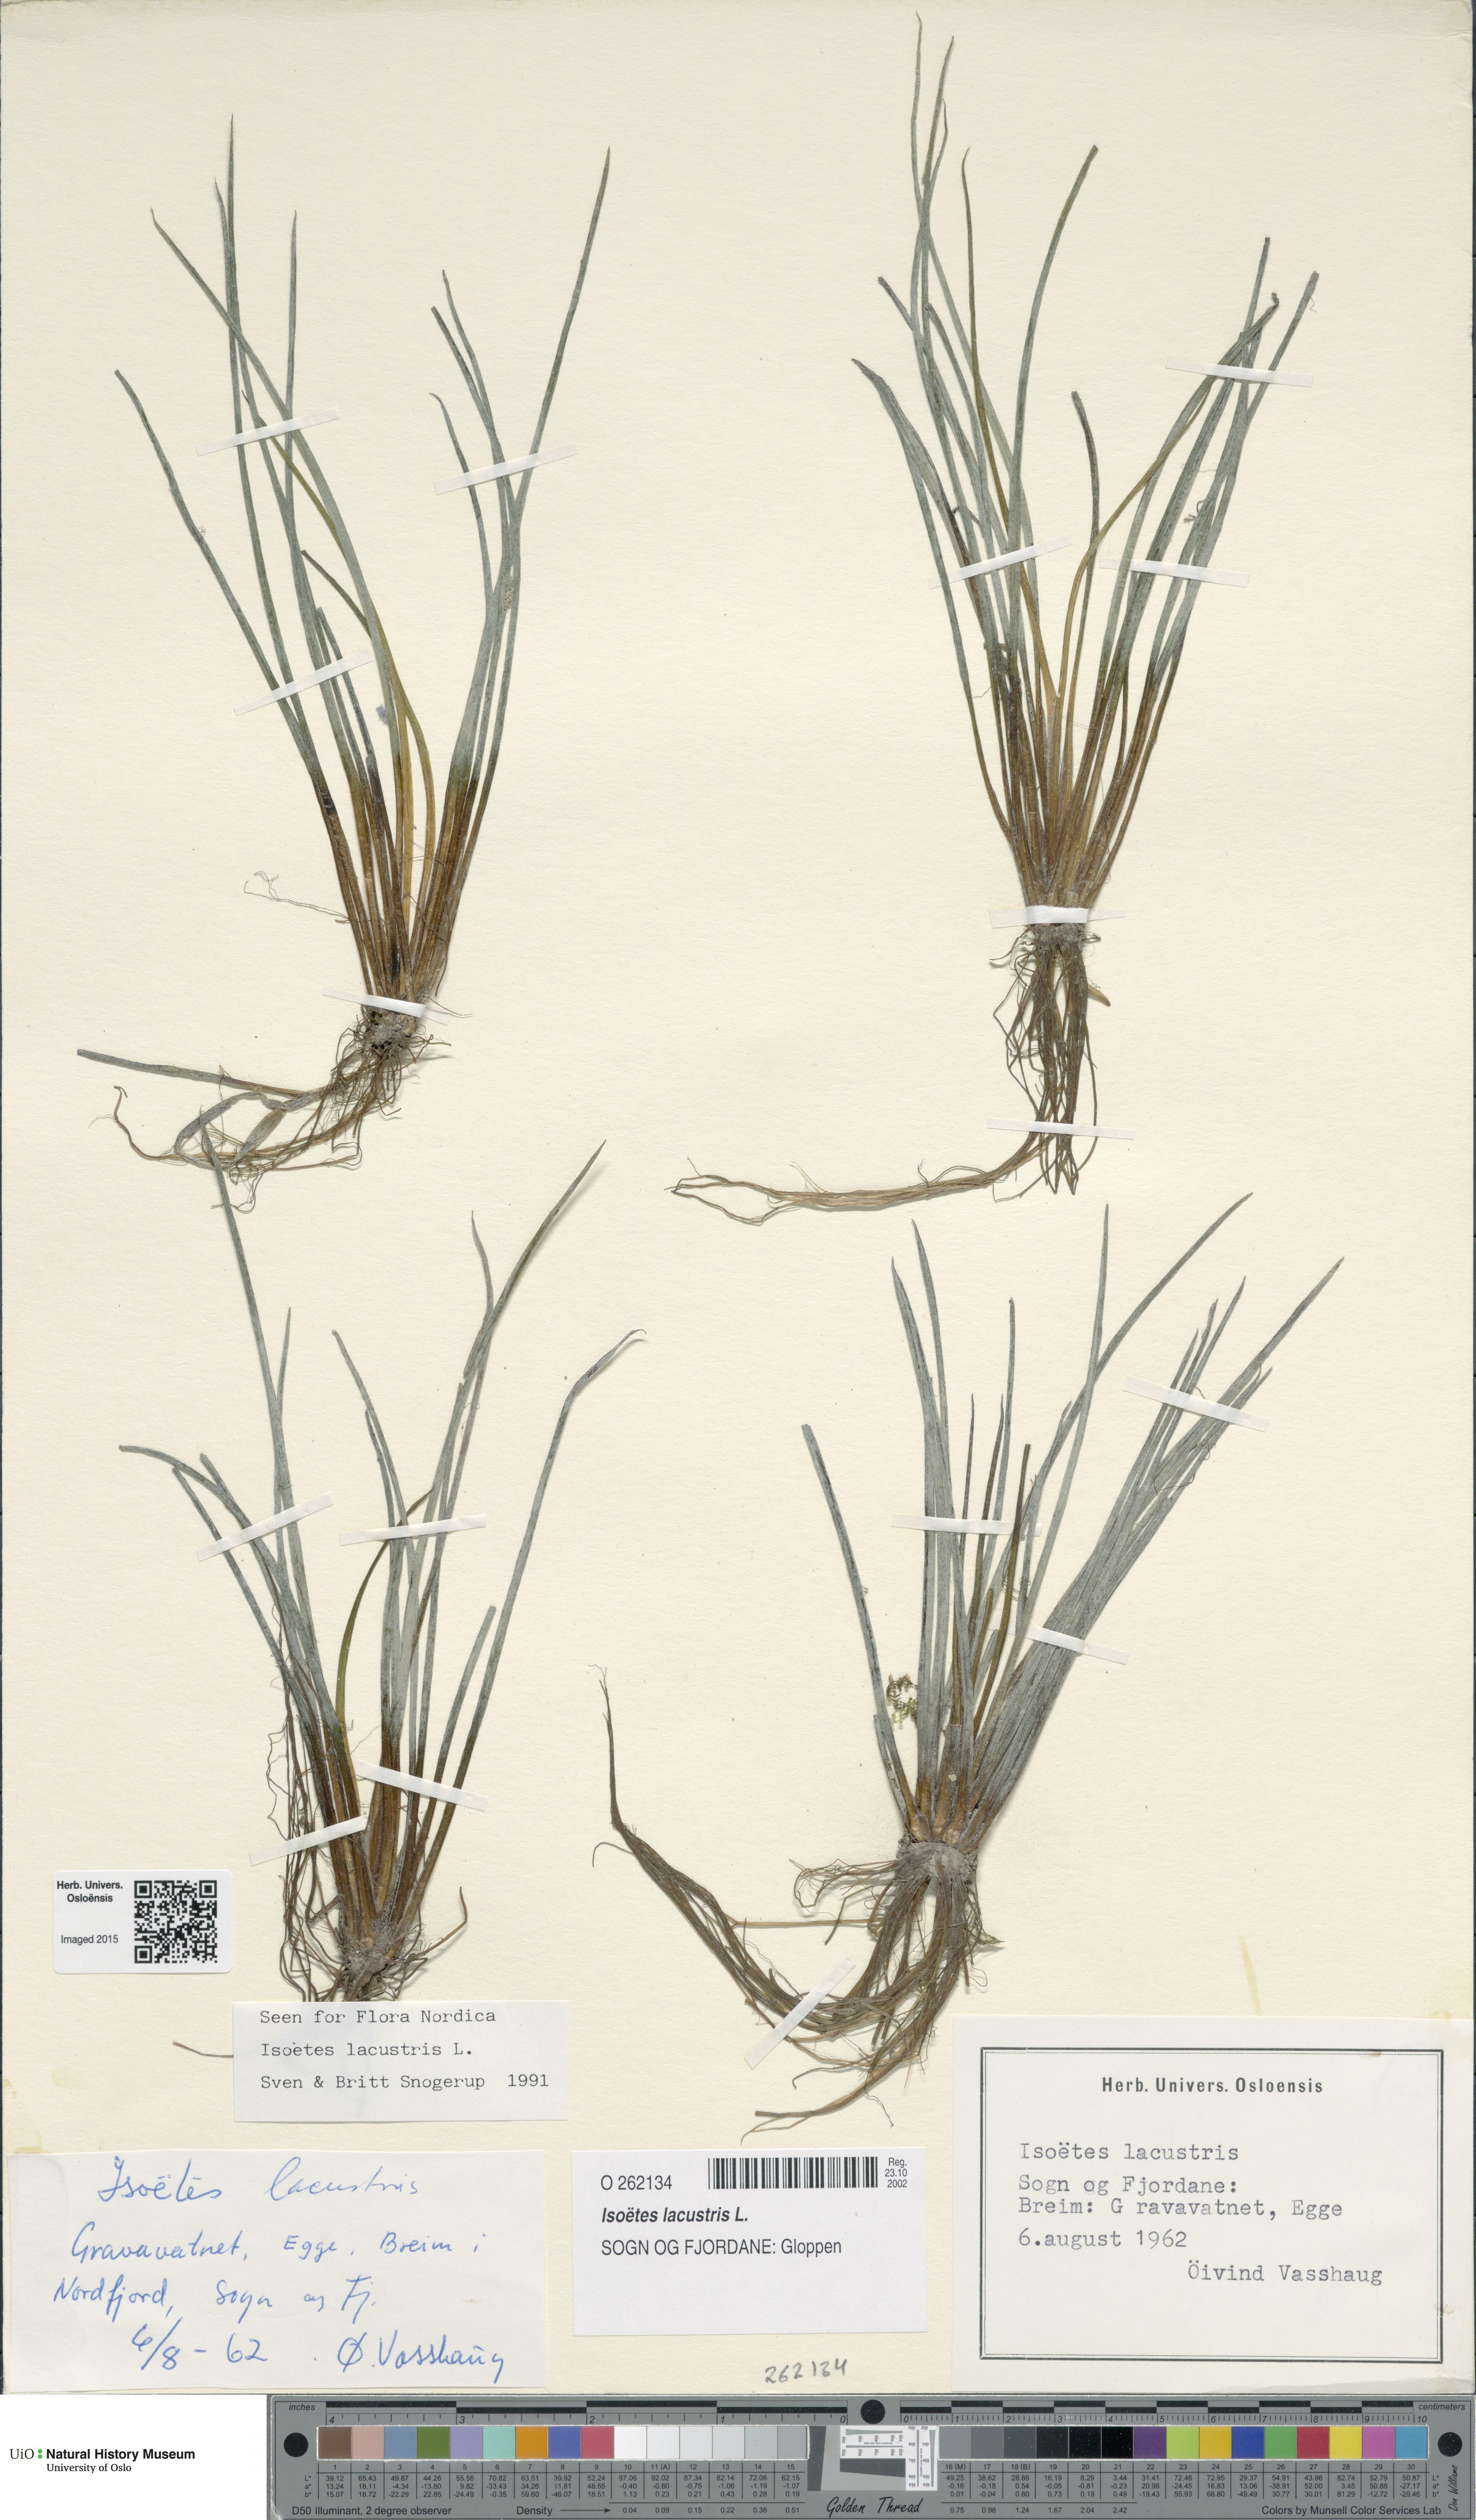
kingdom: Plantae
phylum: Tracheophyta
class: Lycopodiopsida
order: Isoetales
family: Isoetaceae
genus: Isoetes
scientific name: Isoetes lacustris
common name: Common quillwort
